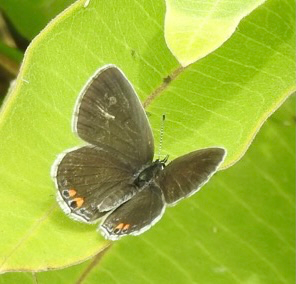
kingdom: Animalia
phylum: Arthropoda
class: Insecta
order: Lepidoptera
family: Lycaenidae
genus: Elkalyce
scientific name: Elkalyce comyntas
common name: Eastern Tailed-Blue
